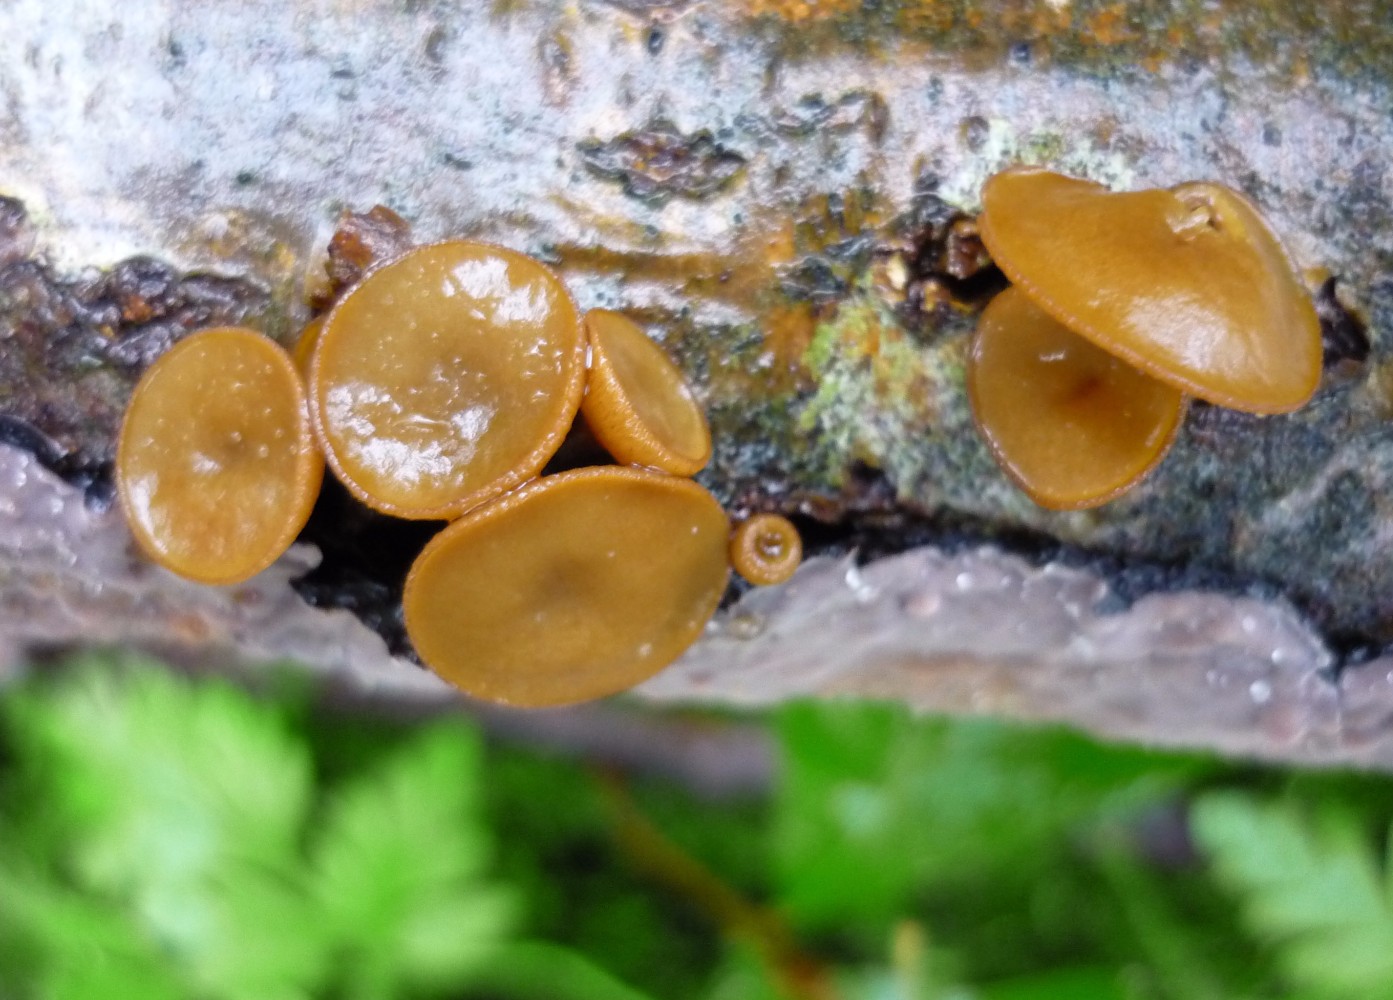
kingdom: Fungi
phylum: Ascomycota
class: Leotiomycetes
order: Helotiales
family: Rutstroemiaceae
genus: Rutstroemia
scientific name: Rutstroemia firma
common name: gren-brunskive
